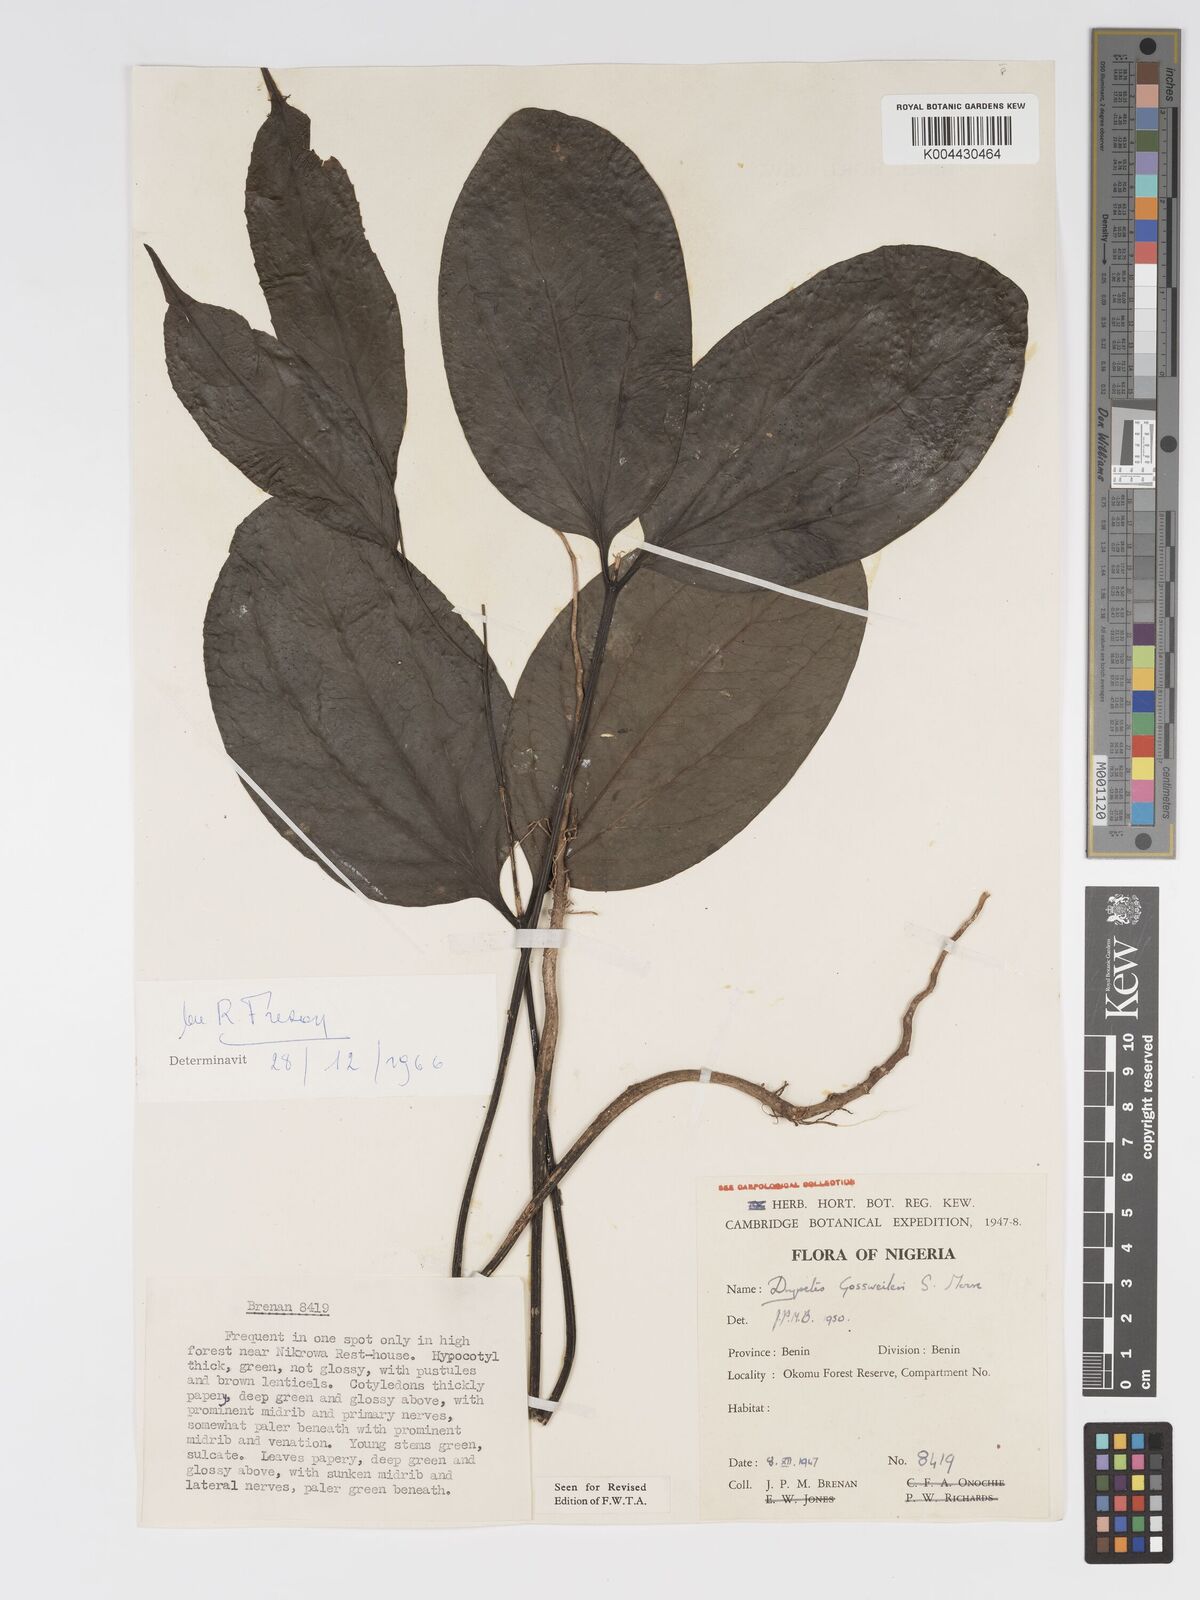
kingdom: Plantae
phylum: Tracheophyta
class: Magnoliopsida
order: Malpighiales
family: Putranjivaceae
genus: Drypetes
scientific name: Drypetes gossweileri
